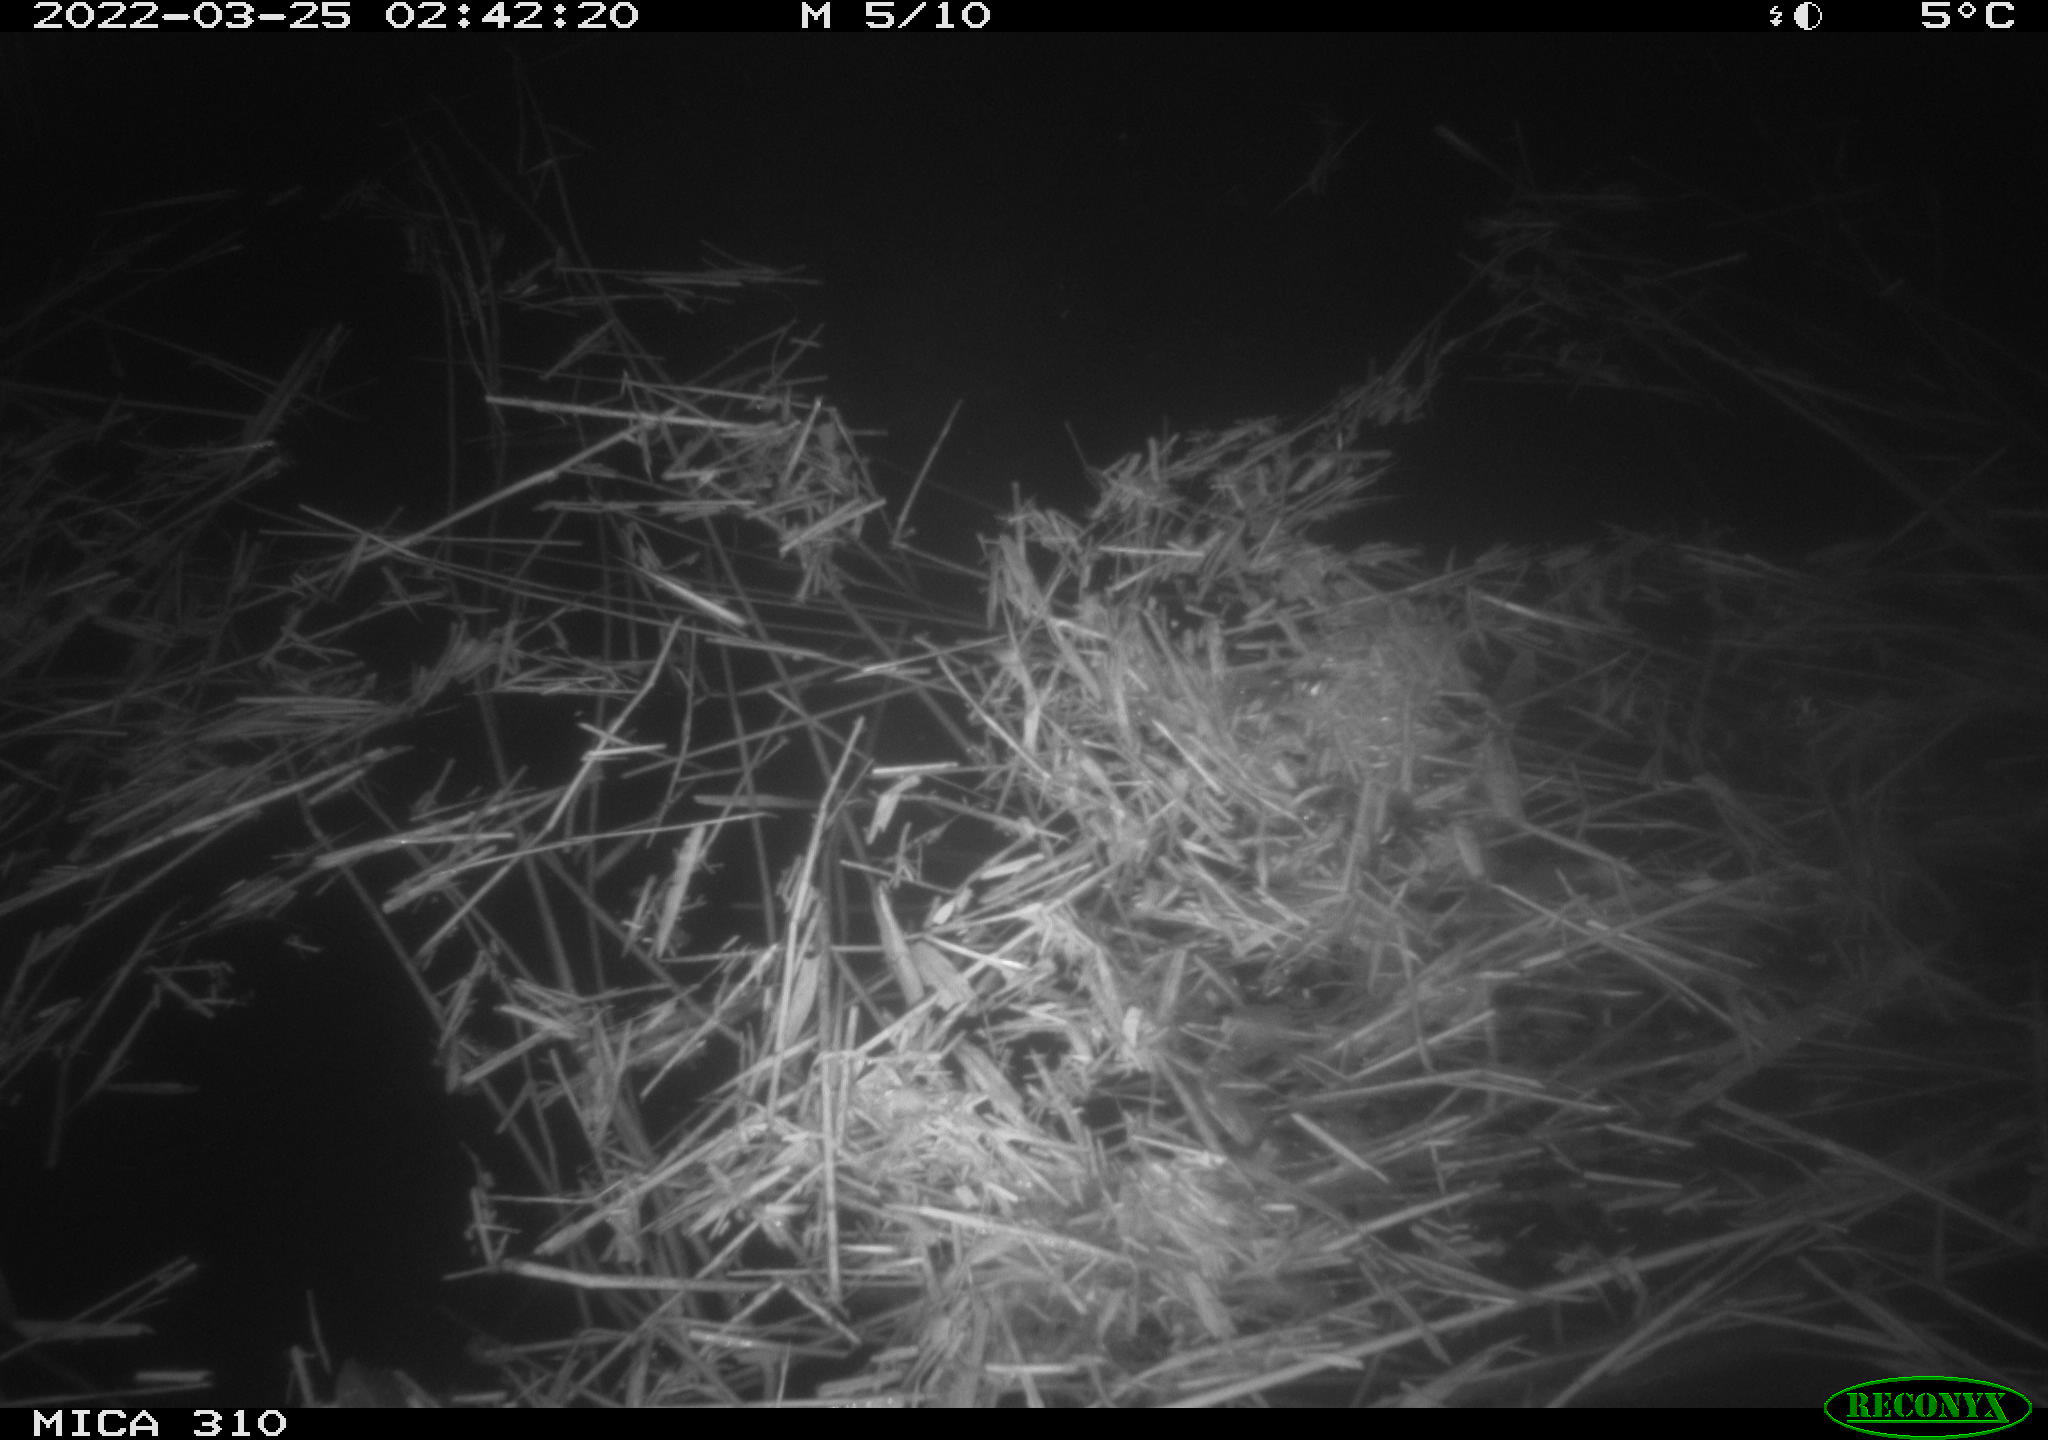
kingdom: Animalia
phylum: Chordata
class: Aves
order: Anseriformes
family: Anatidae
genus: Anas
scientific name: Anas platyrhynchos
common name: Mallard
